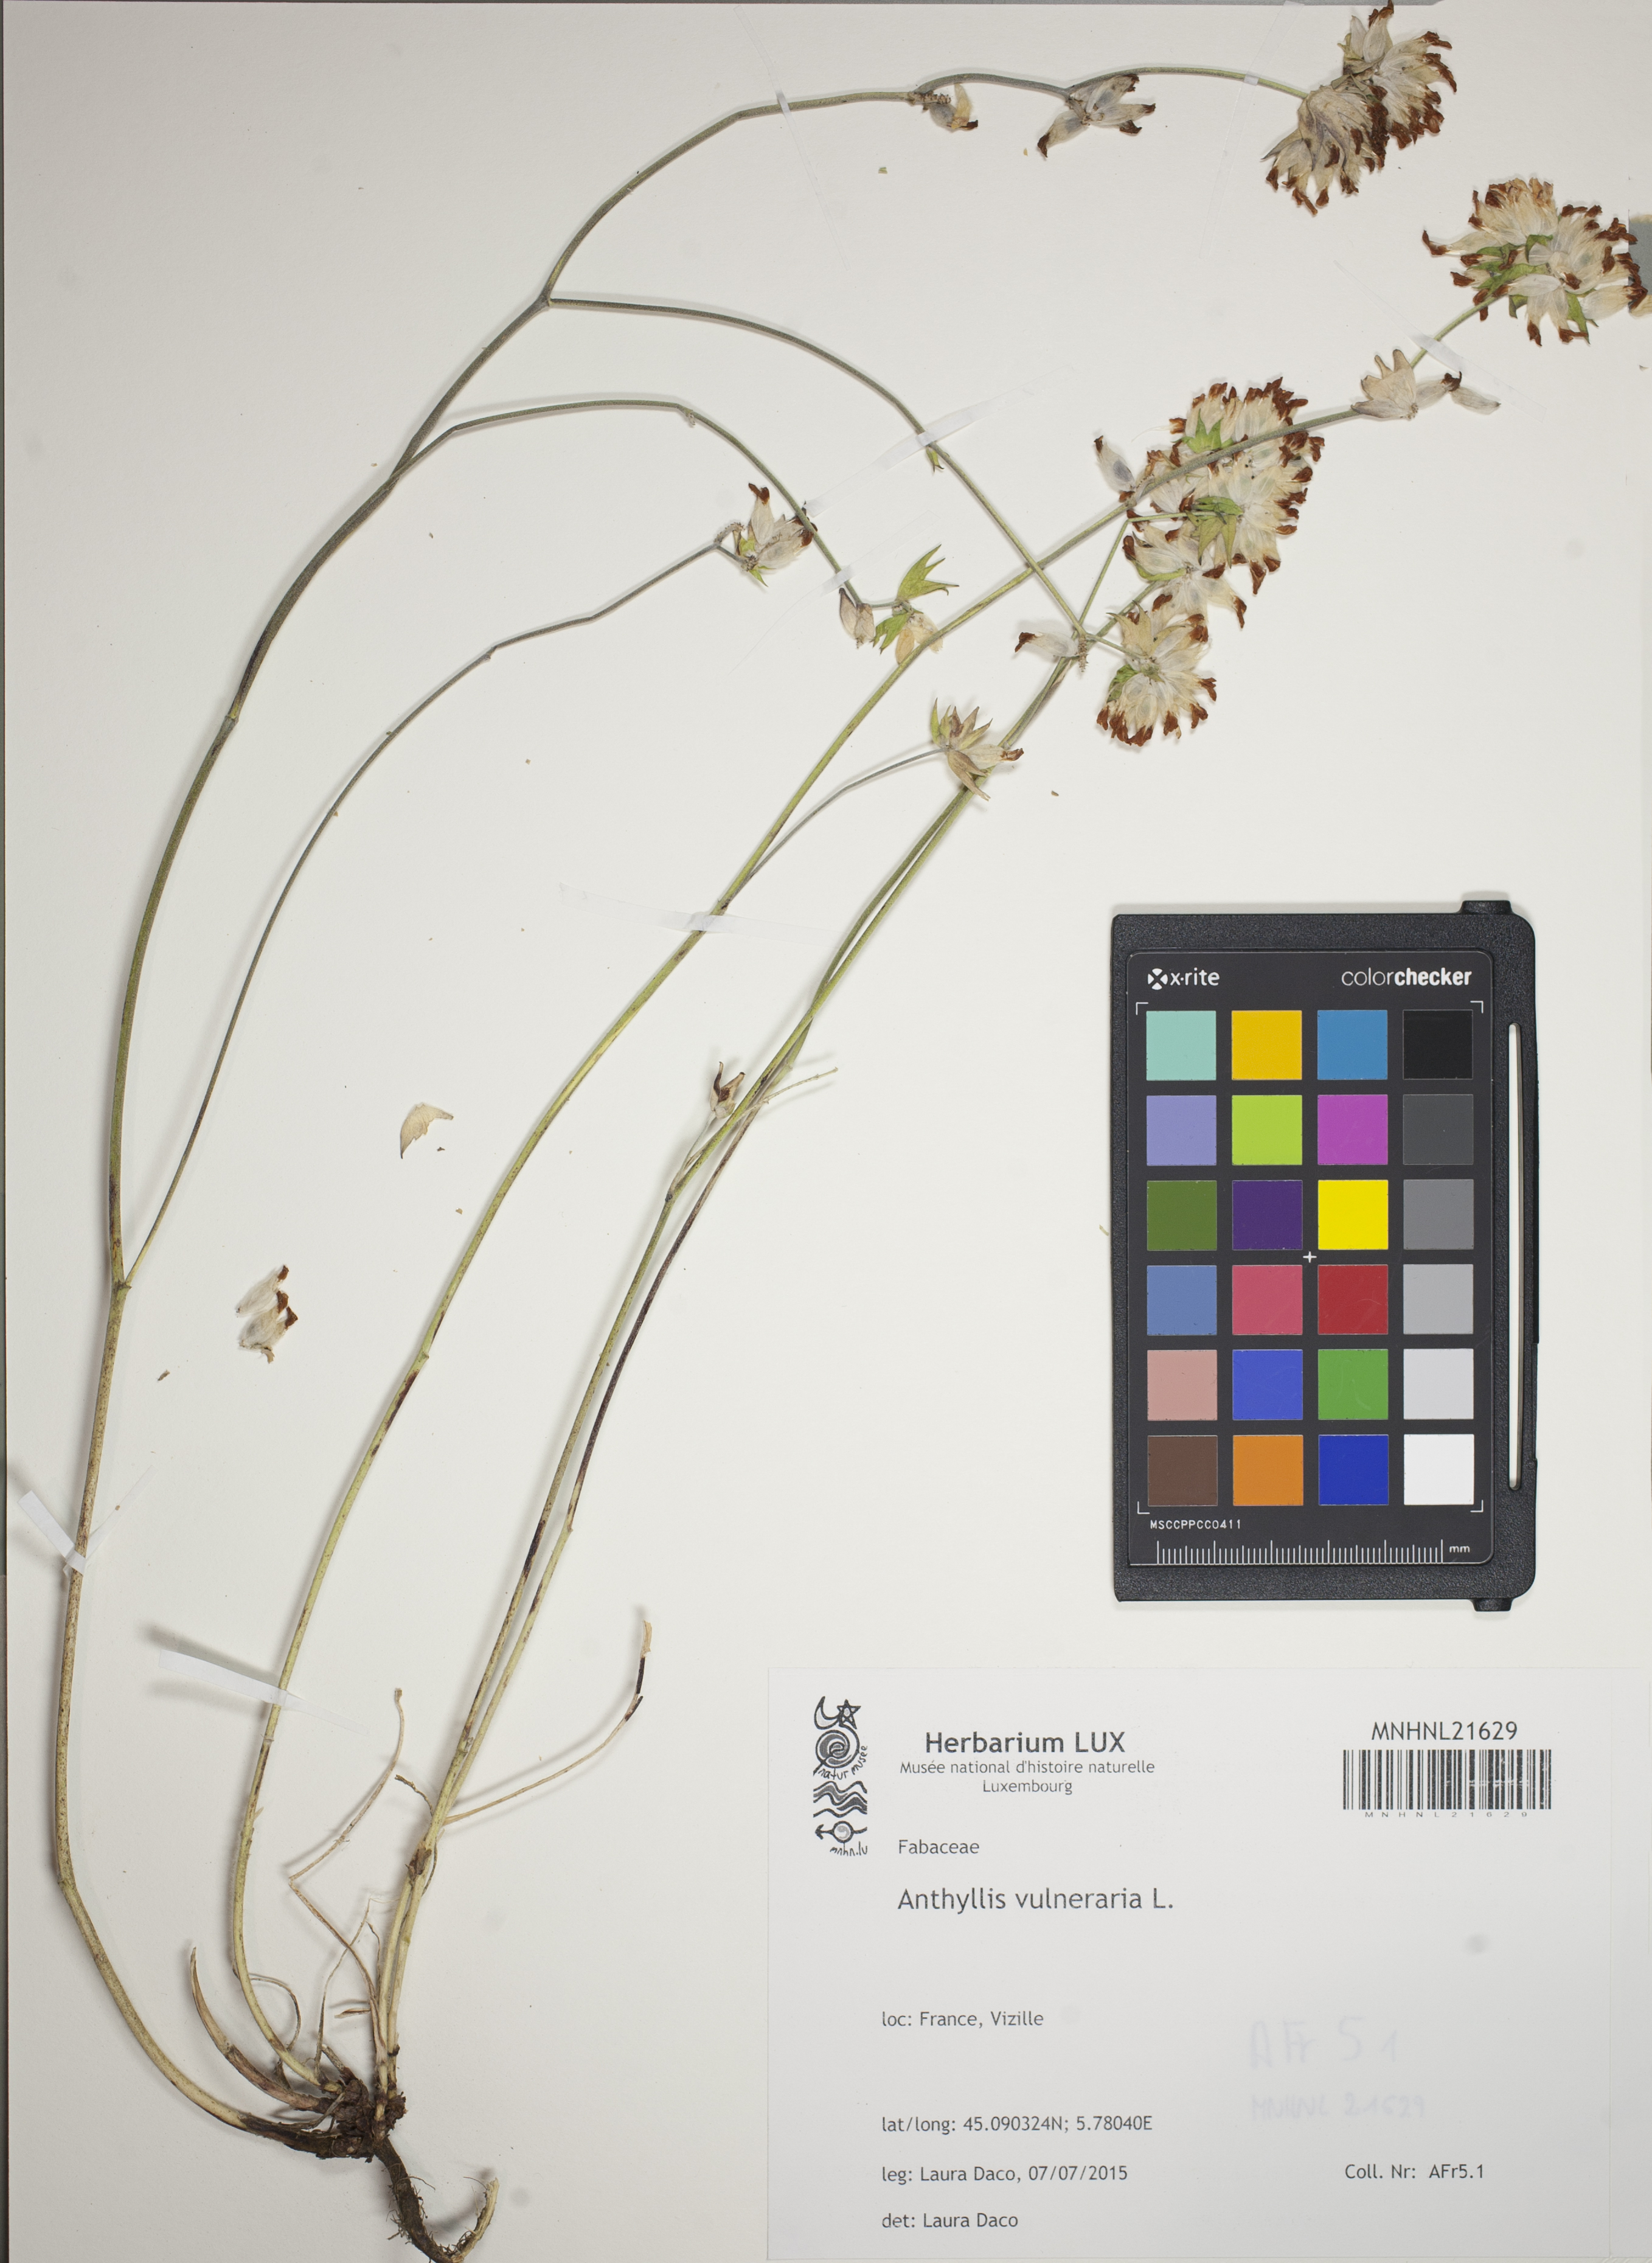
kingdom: Plantae
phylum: Tracheophyta
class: Magnoliopsida
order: Fabales
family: Fabaceae
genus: Anthyllis
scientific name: Anthyllis vulneraria
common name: Kidney vetch
